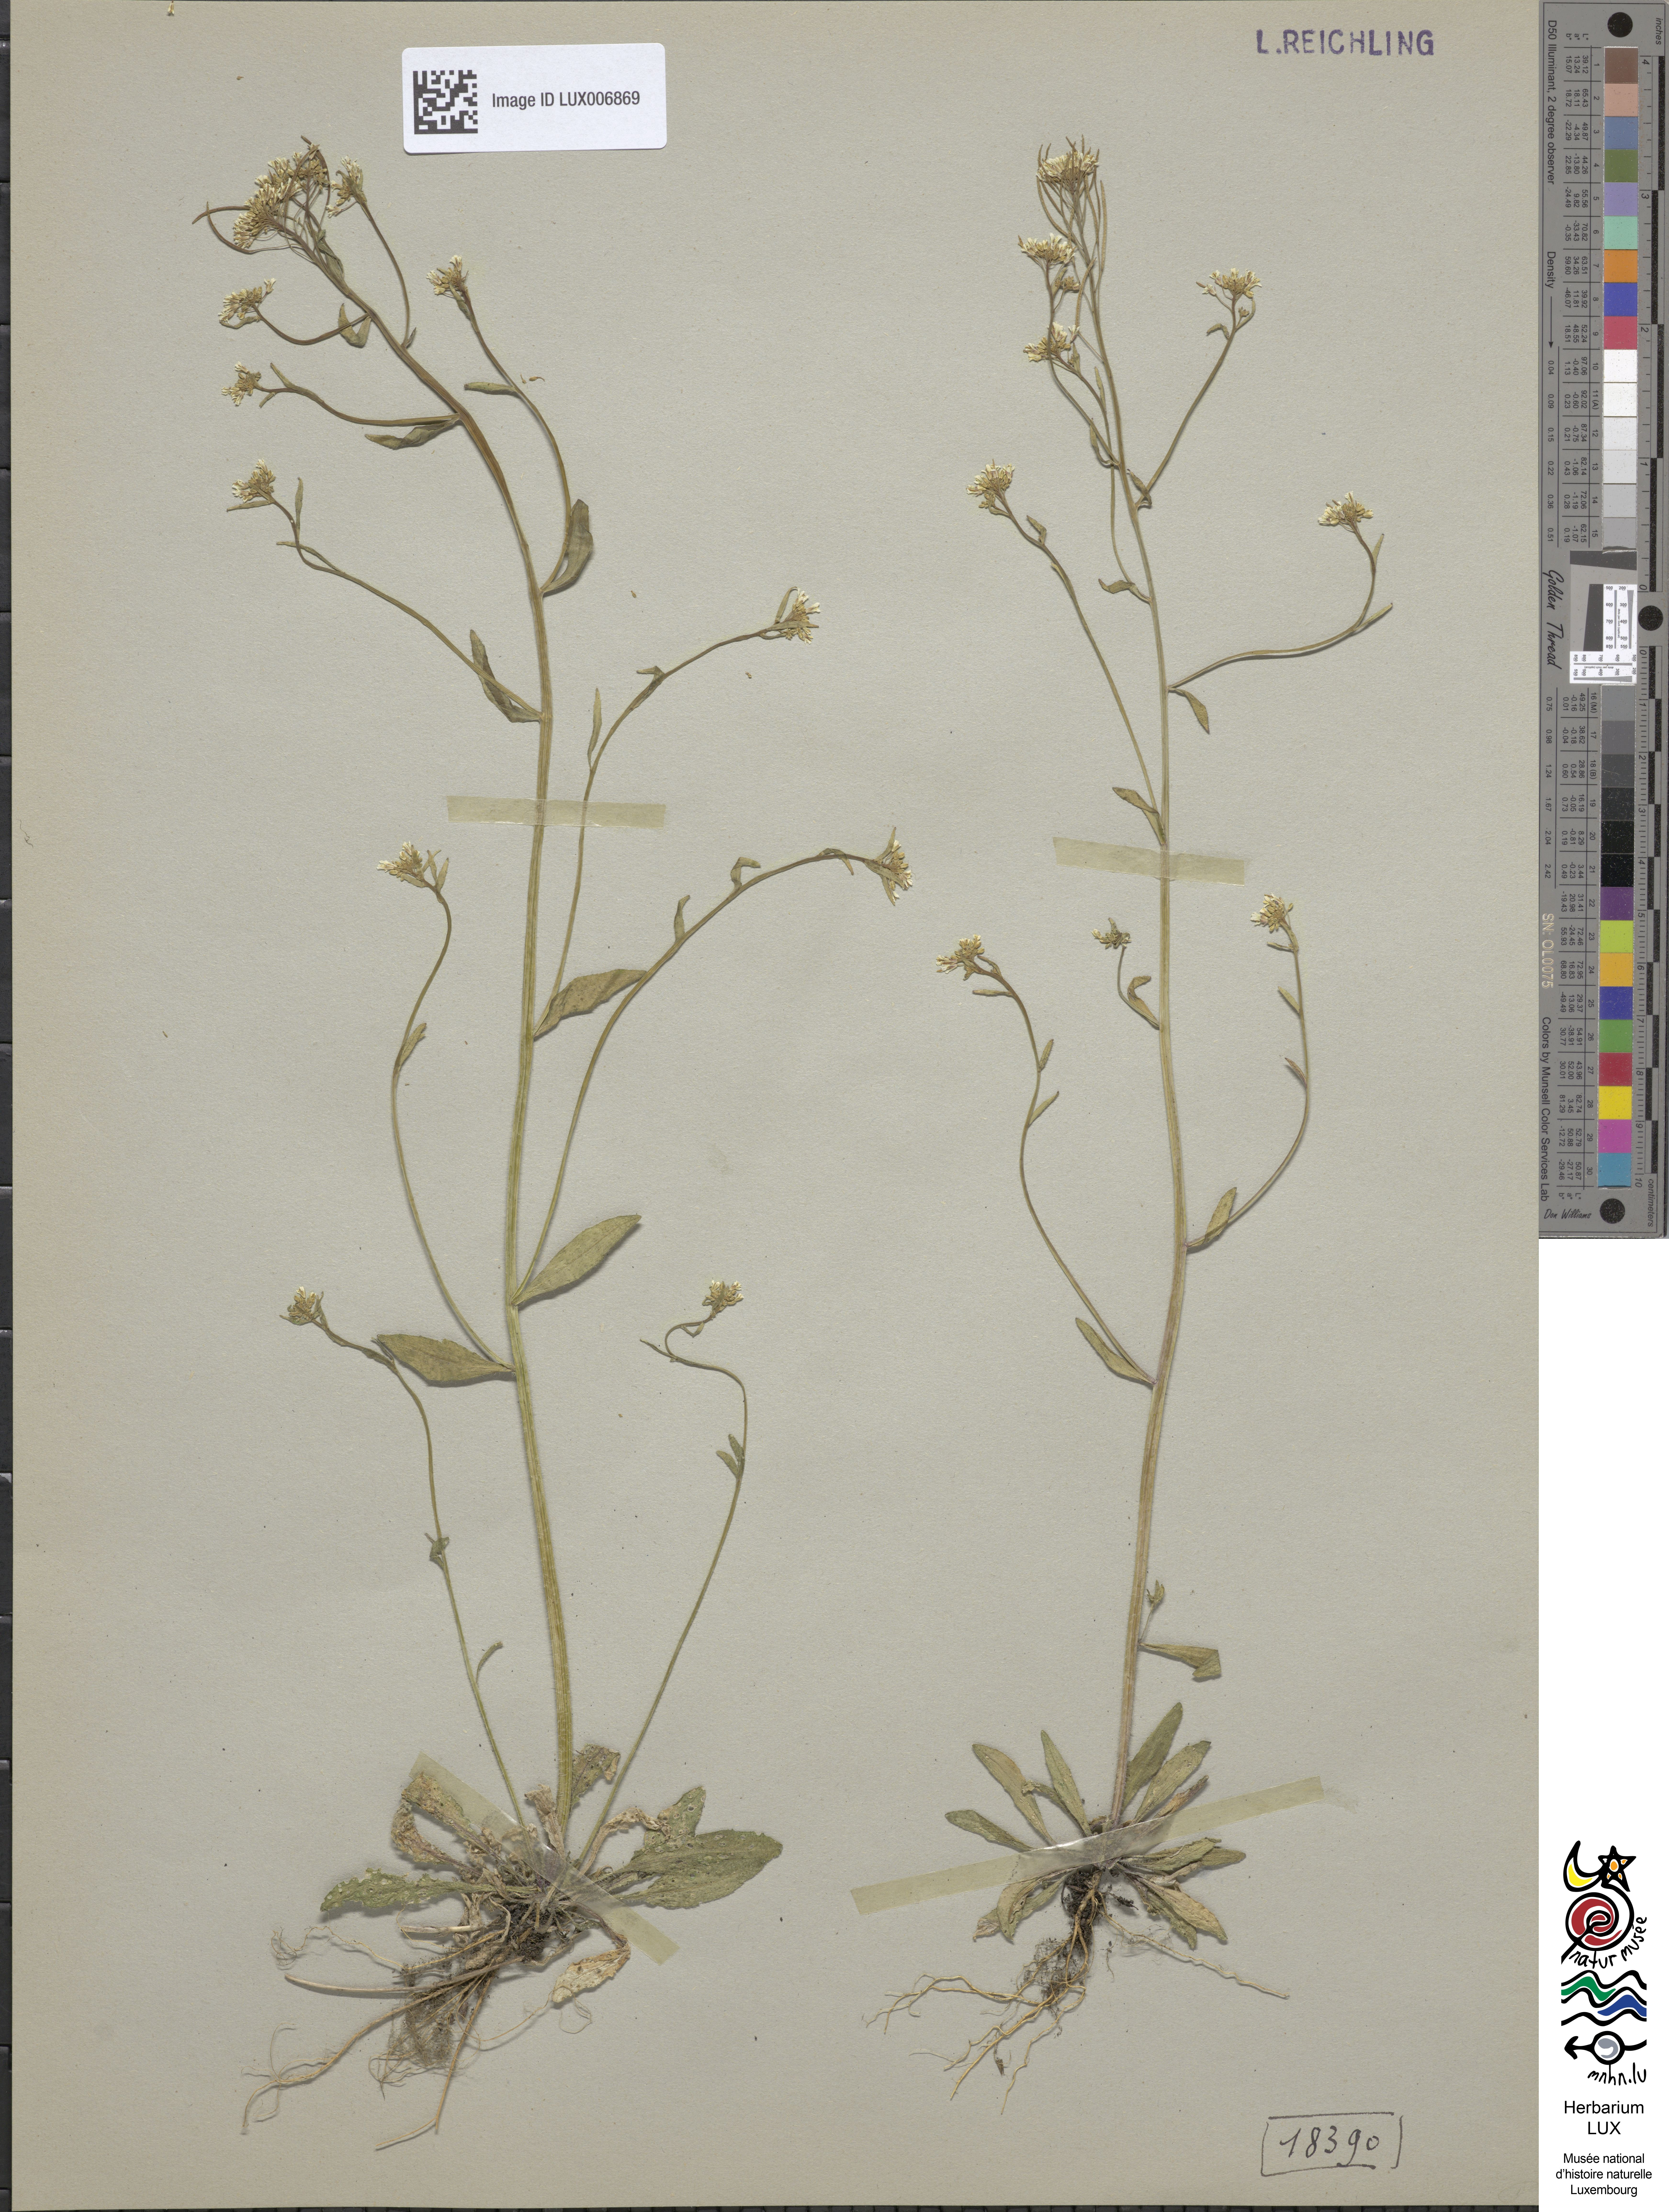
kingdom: Plantae
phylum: Tracheophyta
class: Magnoliopsida
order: Brassicales
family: Brassicaceae
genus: Arabidopsis
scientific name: Arabidopsis thaliana
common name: Thale cress
